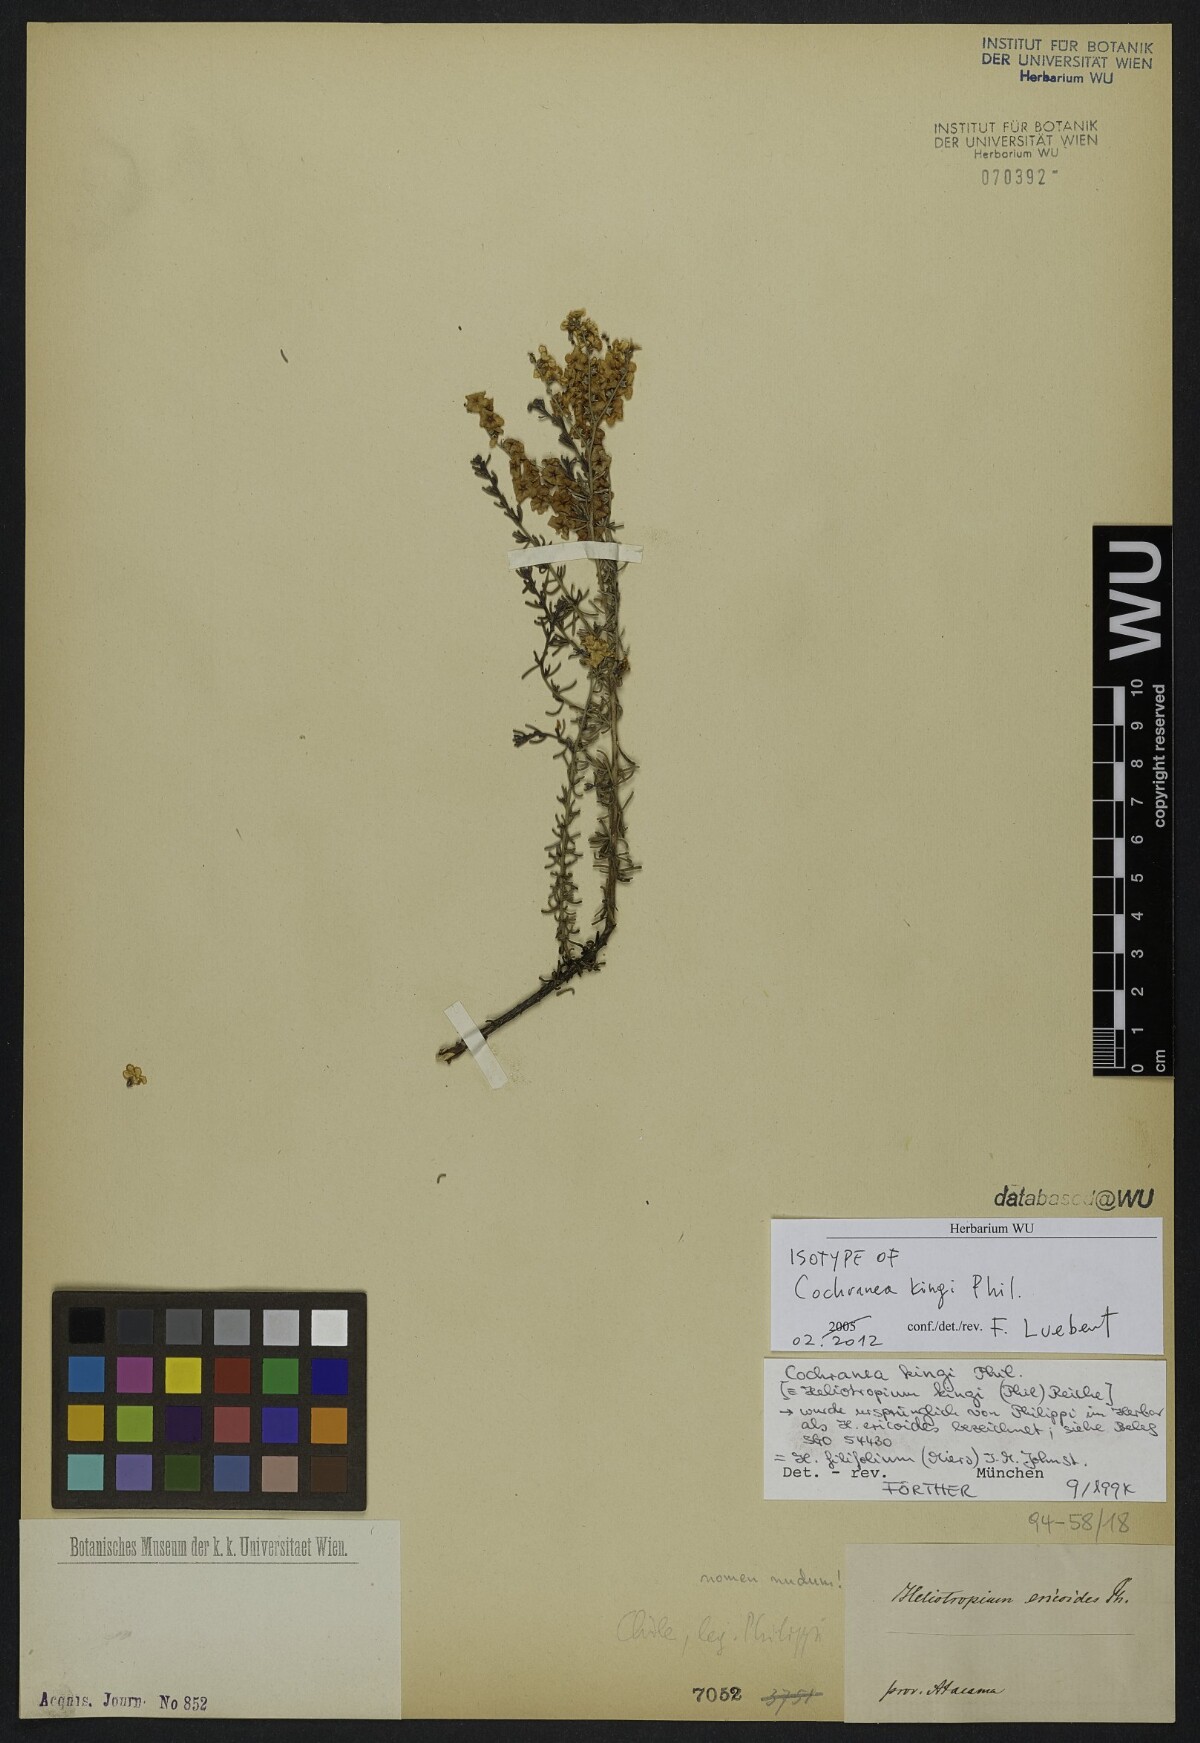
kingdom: Plantae
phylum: Tracheophyta
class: Magnoliopsida
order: Boraginales
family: Heliotropiaceae
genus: Heliotropium
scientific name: Heliotropium filifolium
